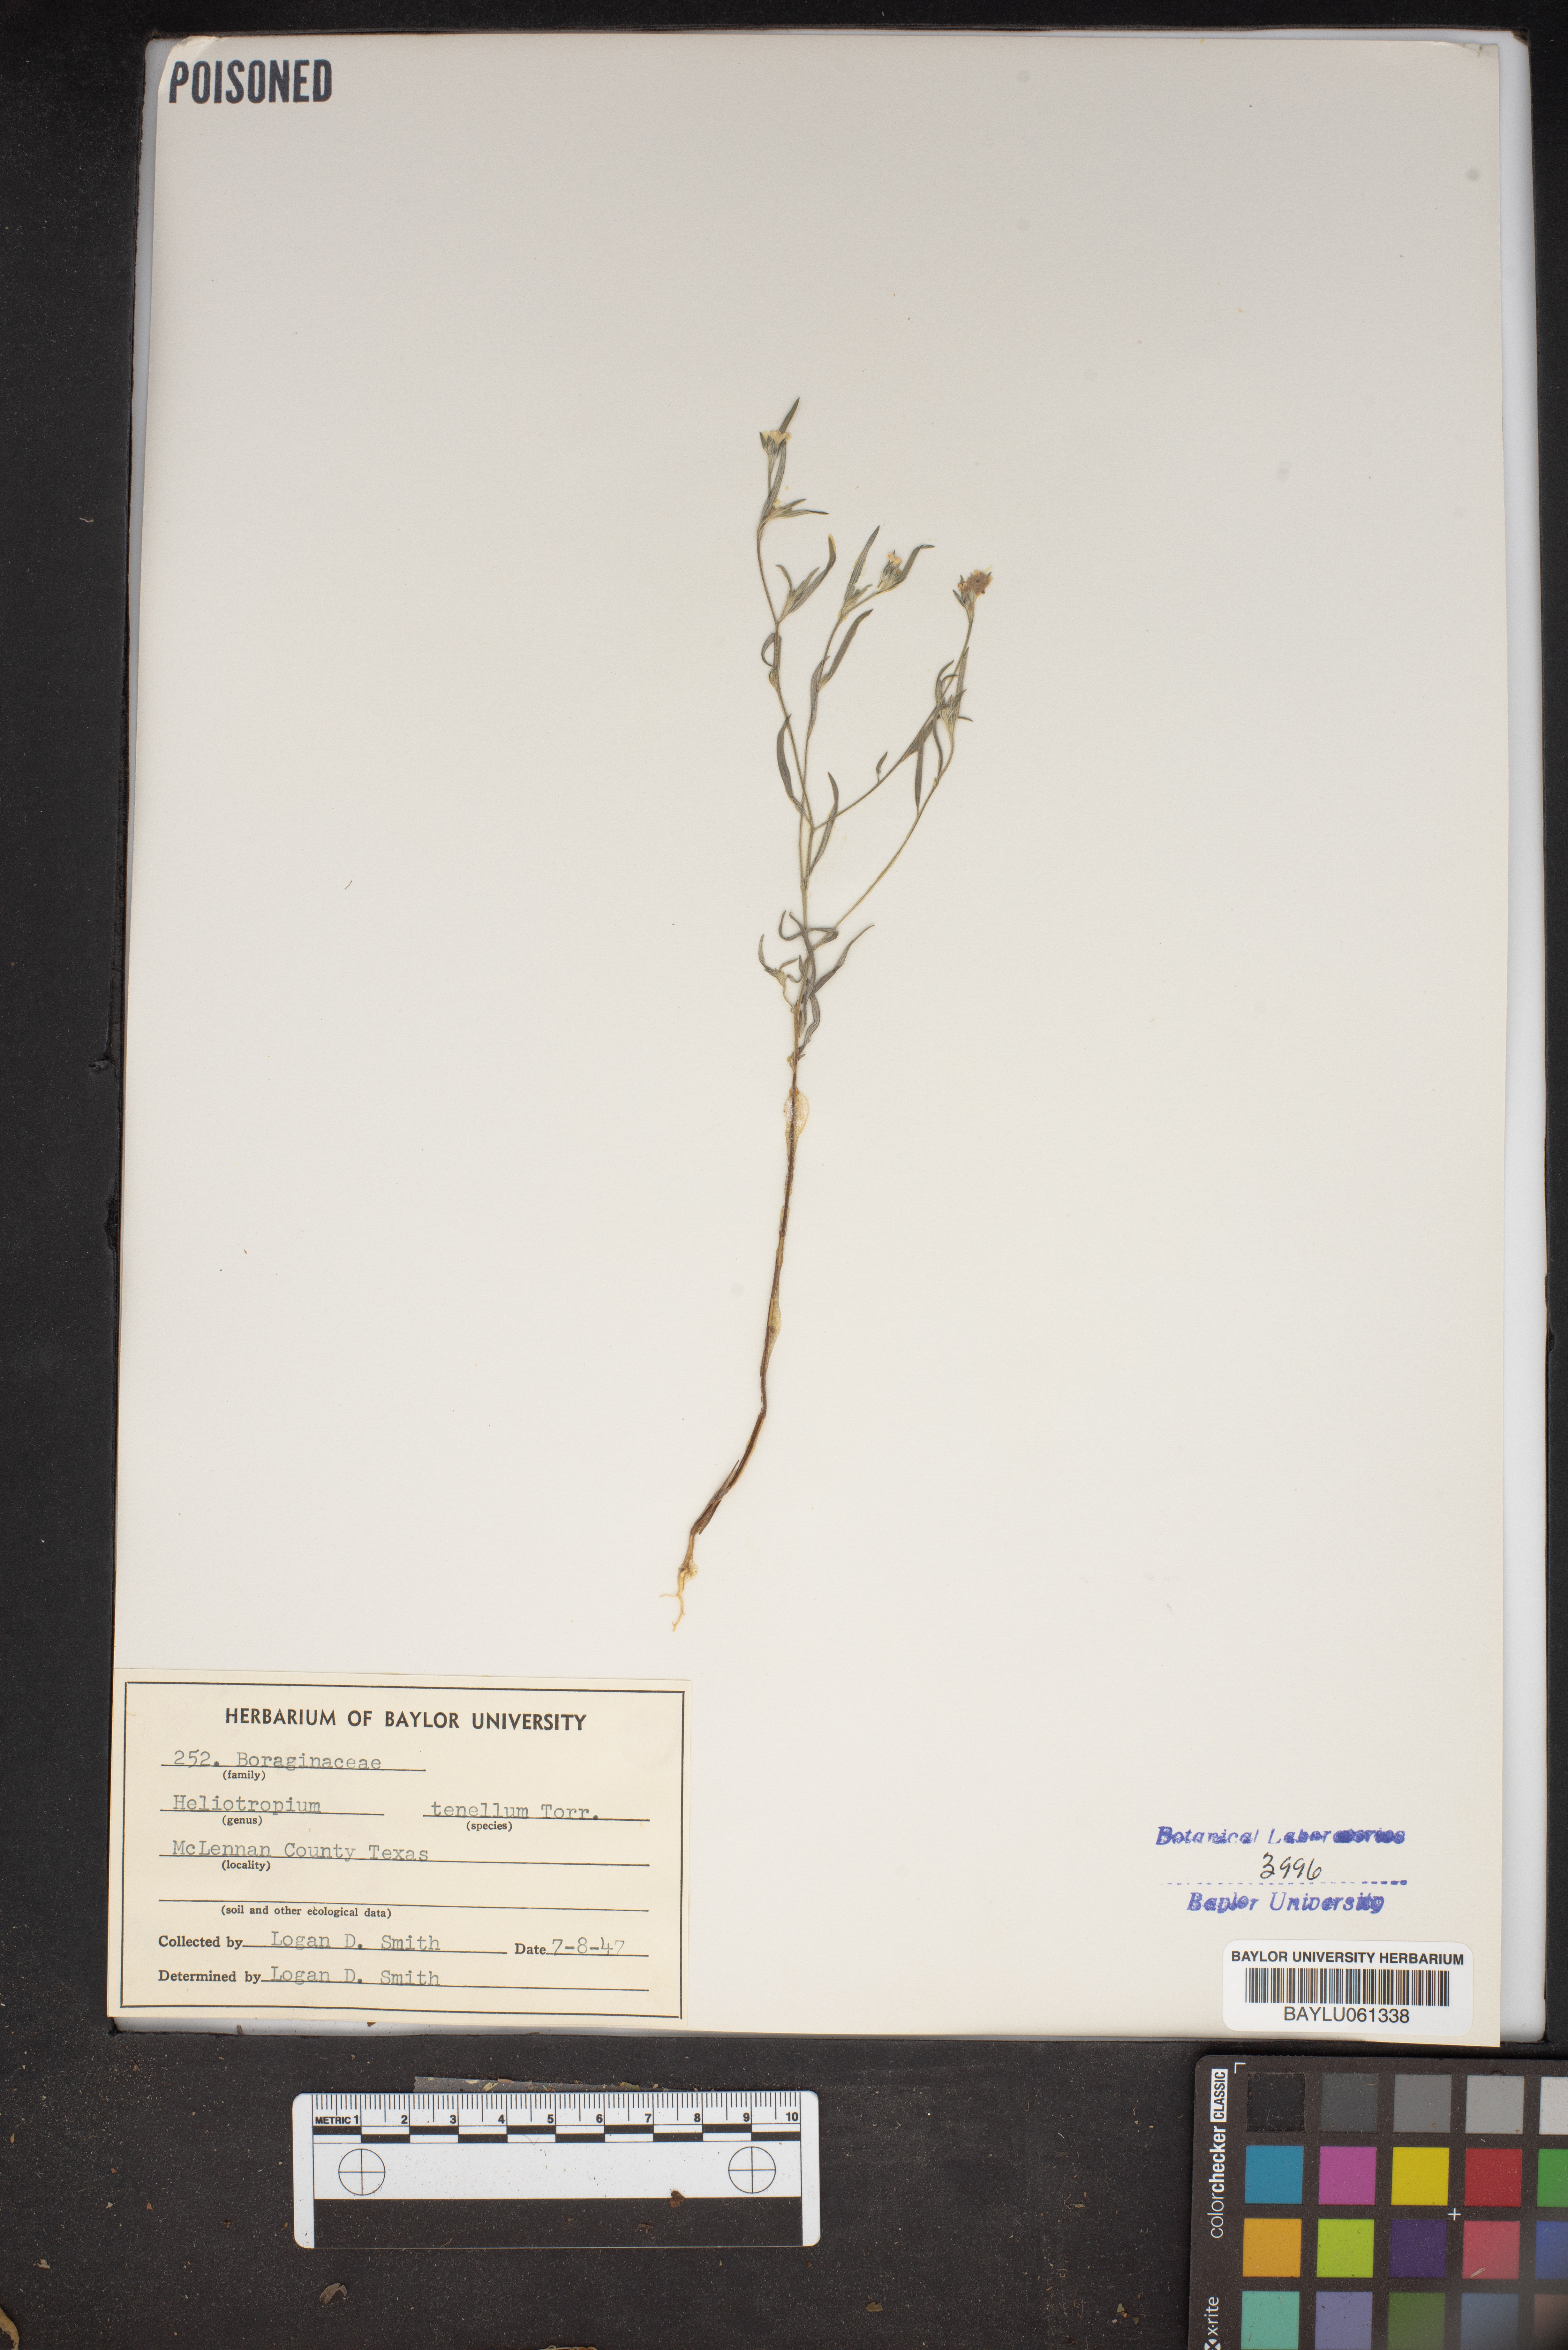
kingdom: Plantae
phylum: Tracheophyta
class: Magnoliopsida
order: Boraginales
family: Heliotropiaceae
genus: Euploca
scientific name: Euploca tenella
